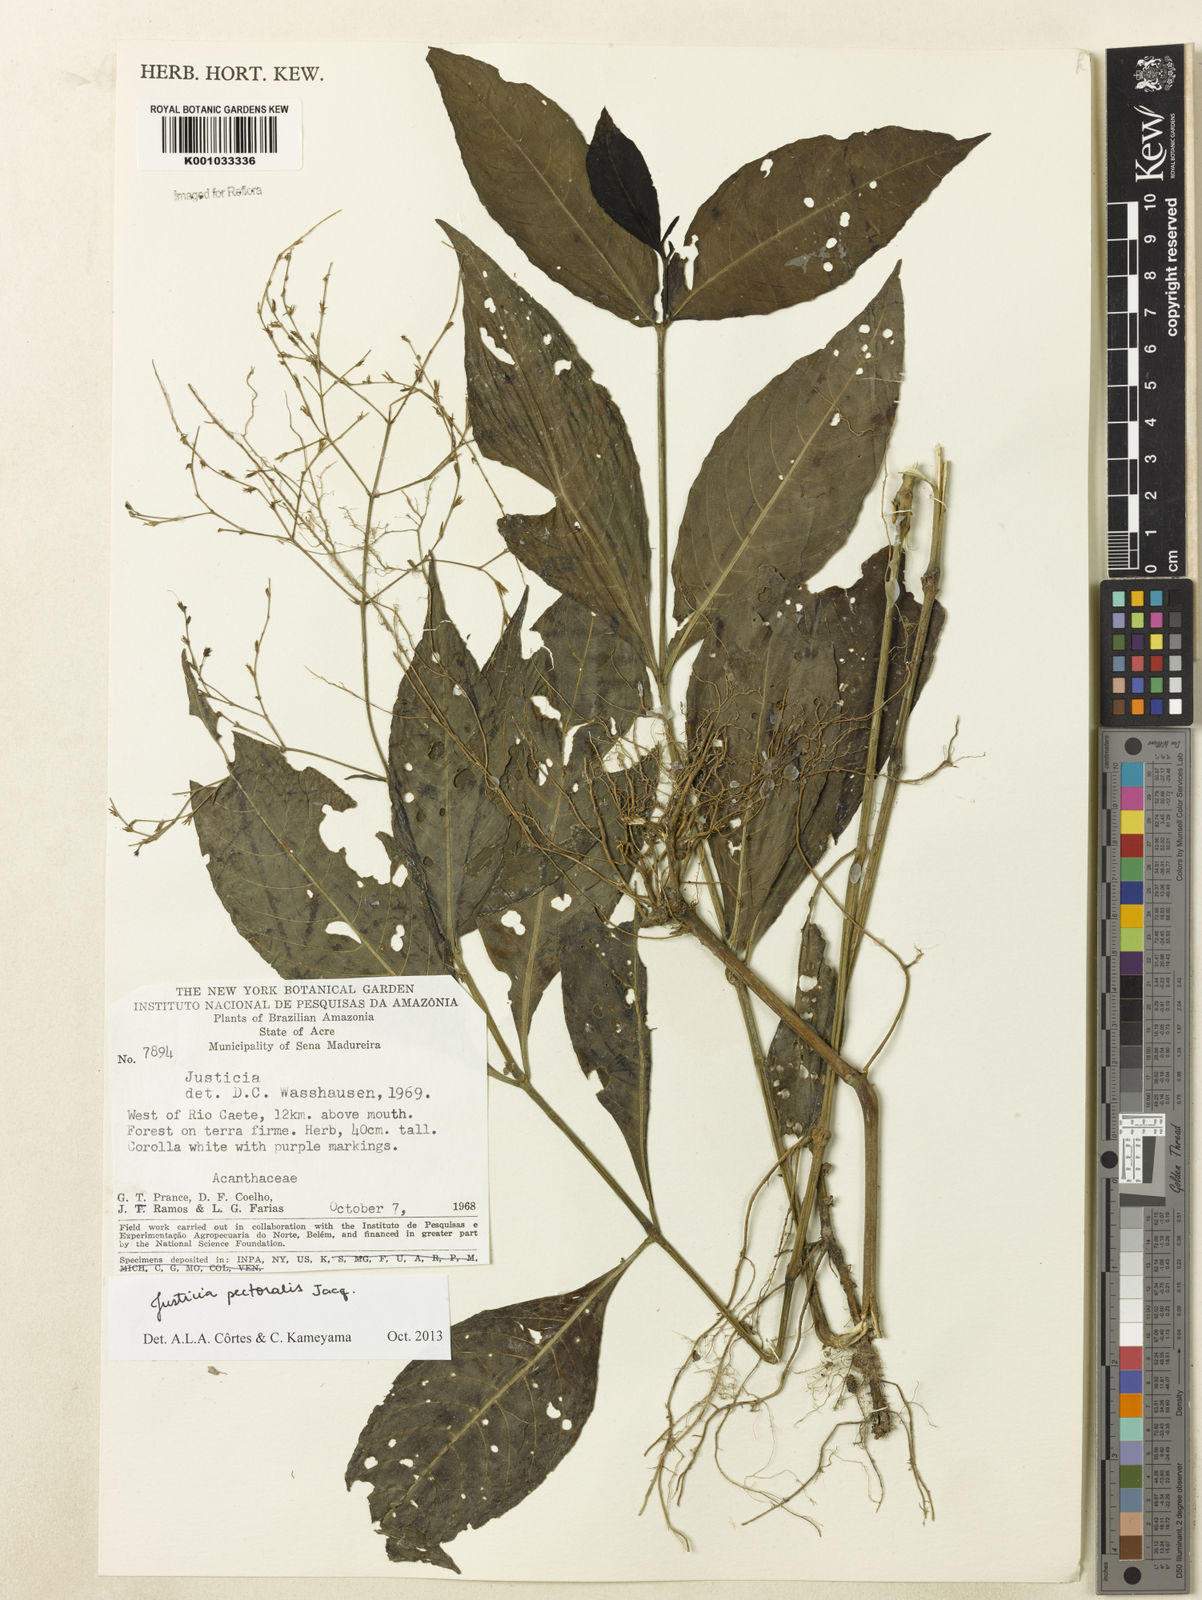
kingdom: Plantae
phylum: Tracheophyta
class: Magnoliopsida
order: Lamiales
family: Acanthaceae
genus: Dianthera
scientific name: Dianthera pectoralis
